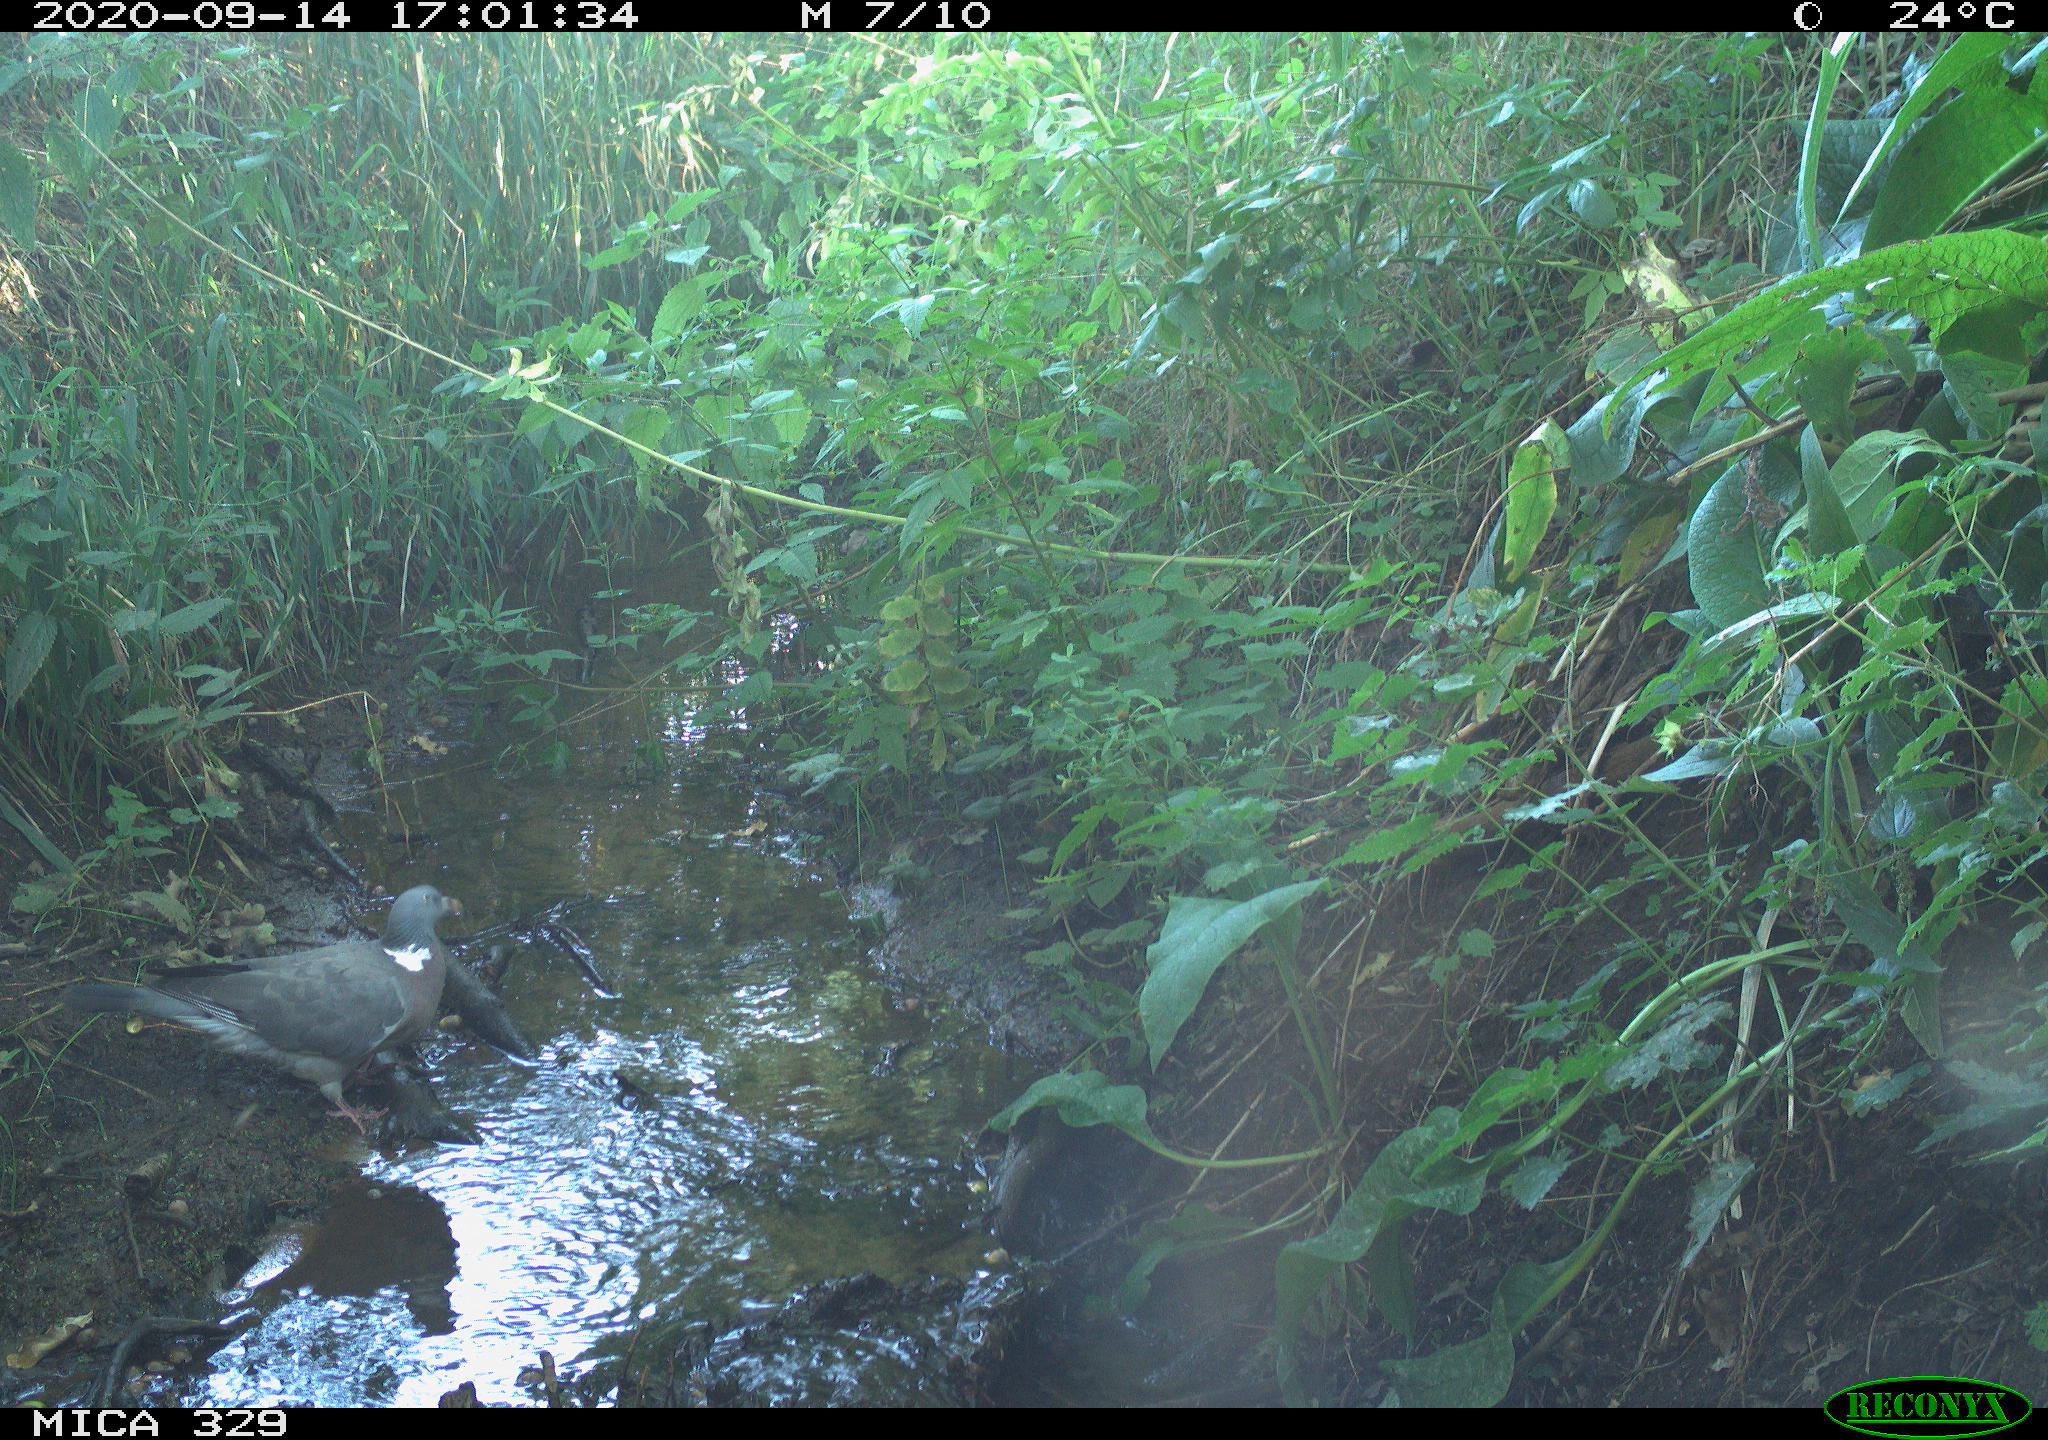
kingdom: Animalia
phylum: Chordata
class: Aves
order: Columbiformes
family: Columbidae
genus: Columba
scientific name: Columba palumbus
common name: Common wood pigeon
